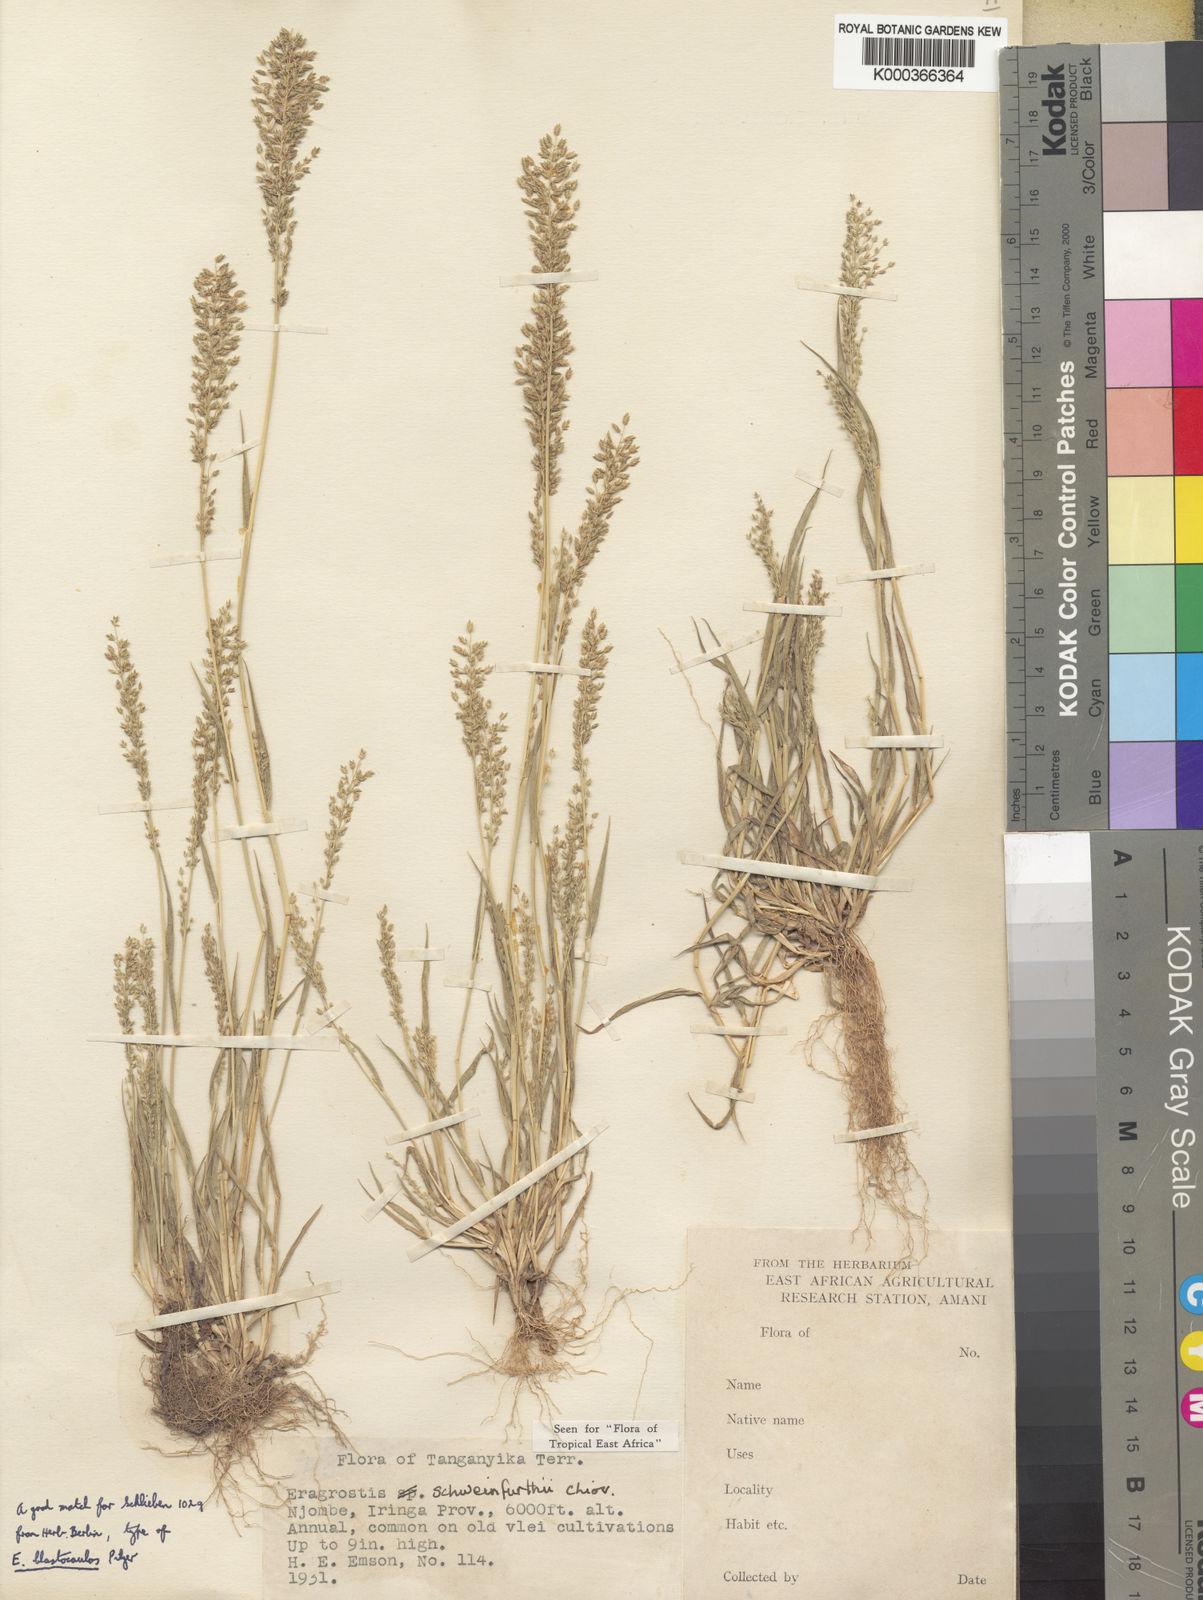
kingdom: Plantae
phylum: Tracheophyta
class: Liliopsida
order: Poales
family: Poaceae
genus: Eragrostis
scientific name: Eragrostis schweinfurthii
